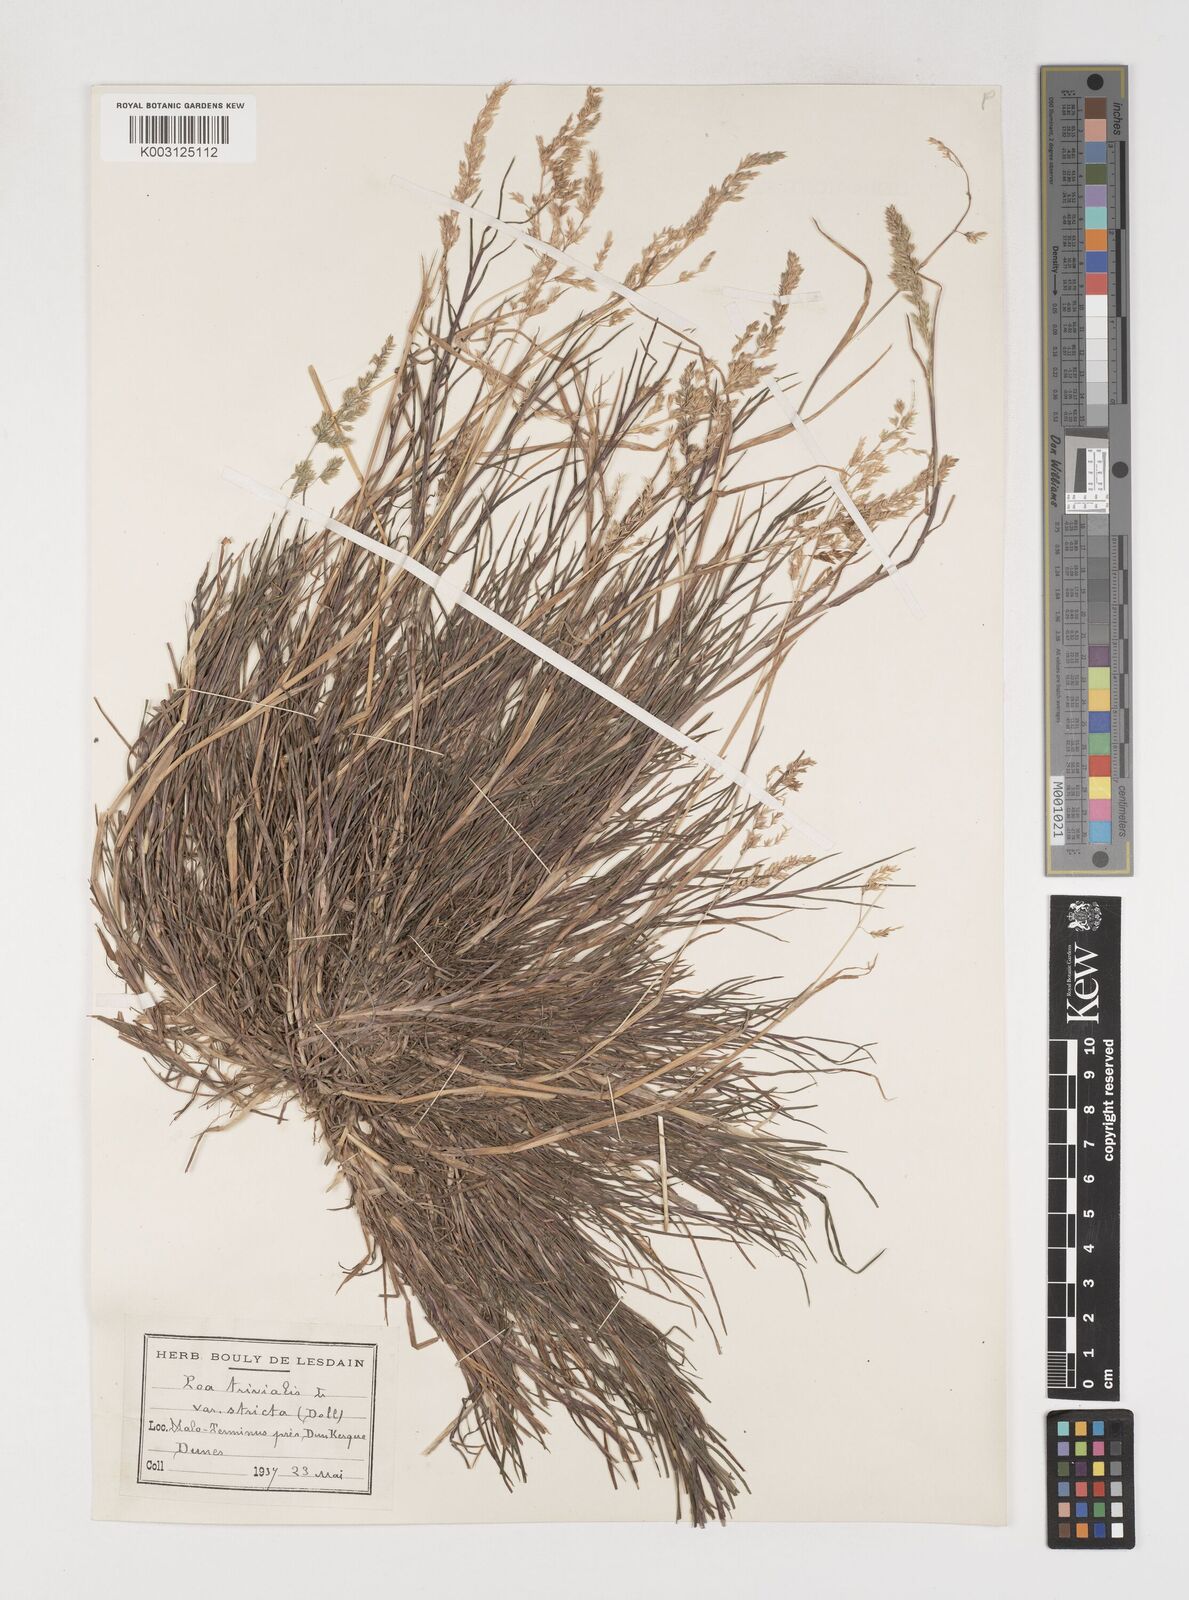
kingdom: Plantae
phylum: Tracheophyta
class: Liliopsida
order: Poales
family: Poaceae
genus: Poa
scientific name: Poa trivialis
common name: Rough bluegrass
